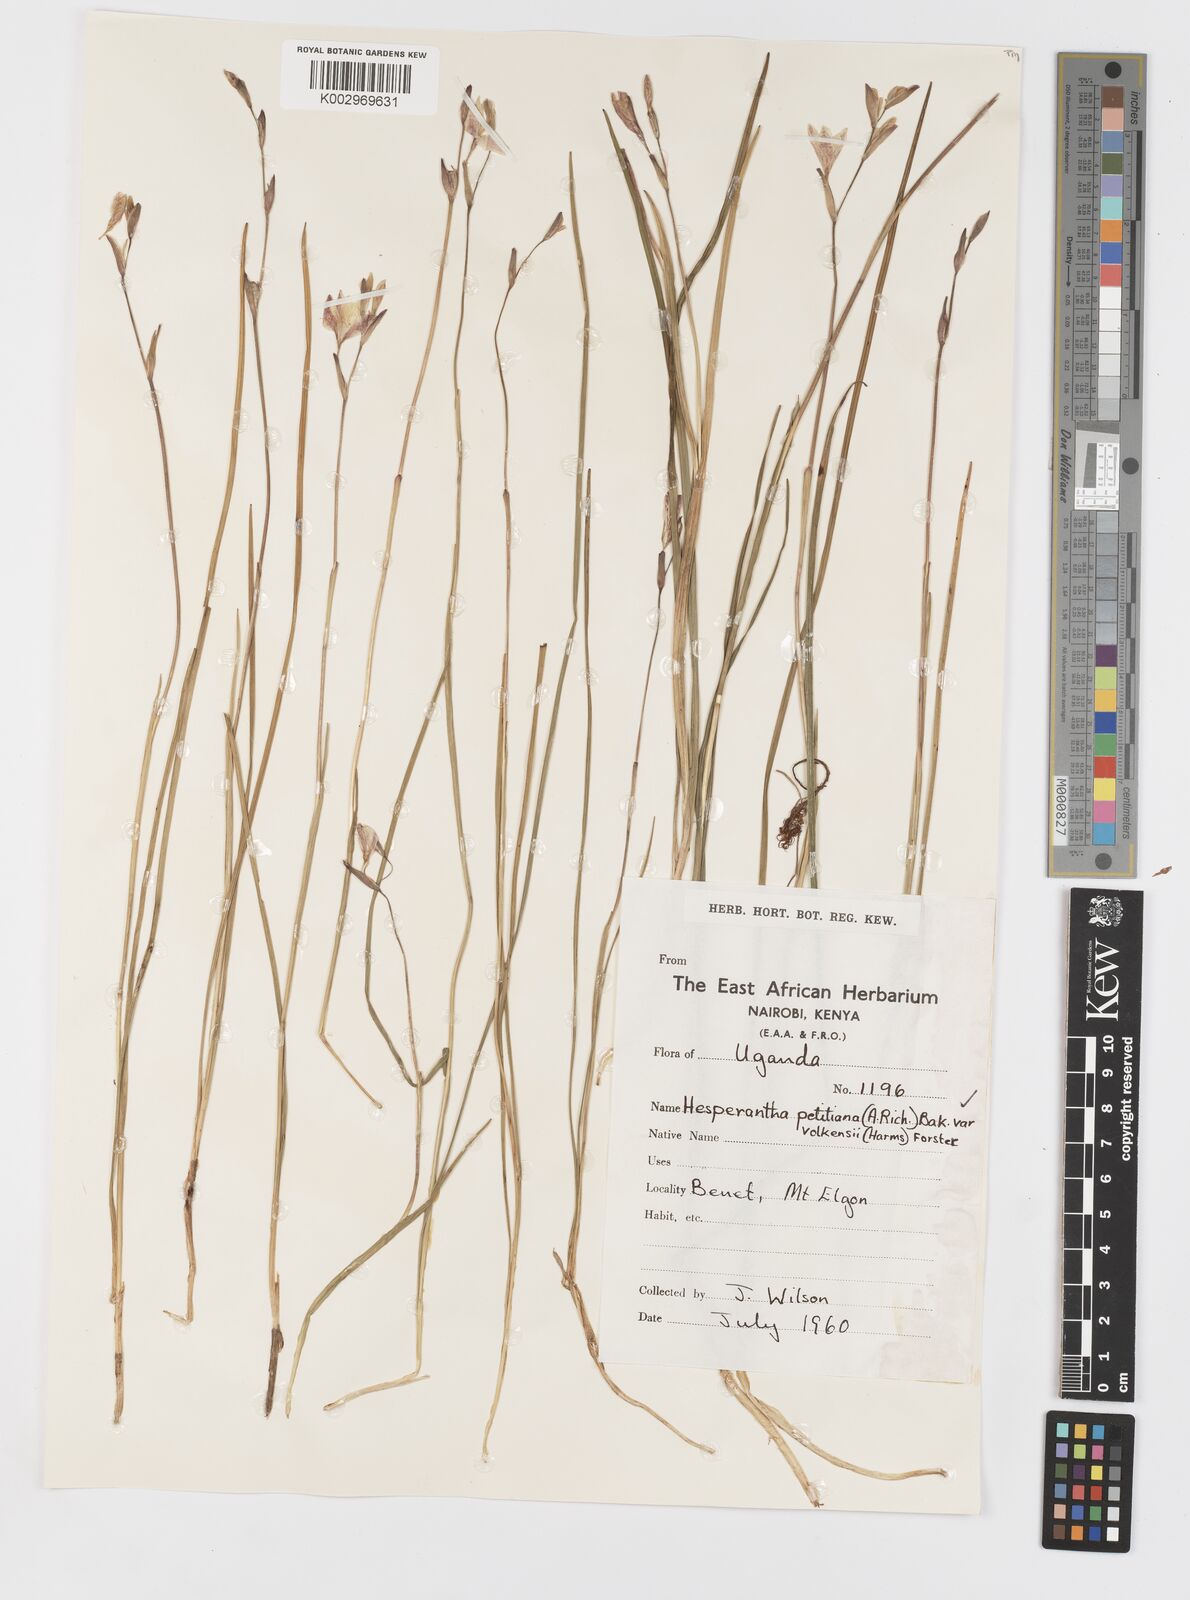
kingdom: Plantae
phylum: Tracheophyta
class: Liliopsida
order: Asparagales
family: Iridaceae
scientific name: Iridaceae
